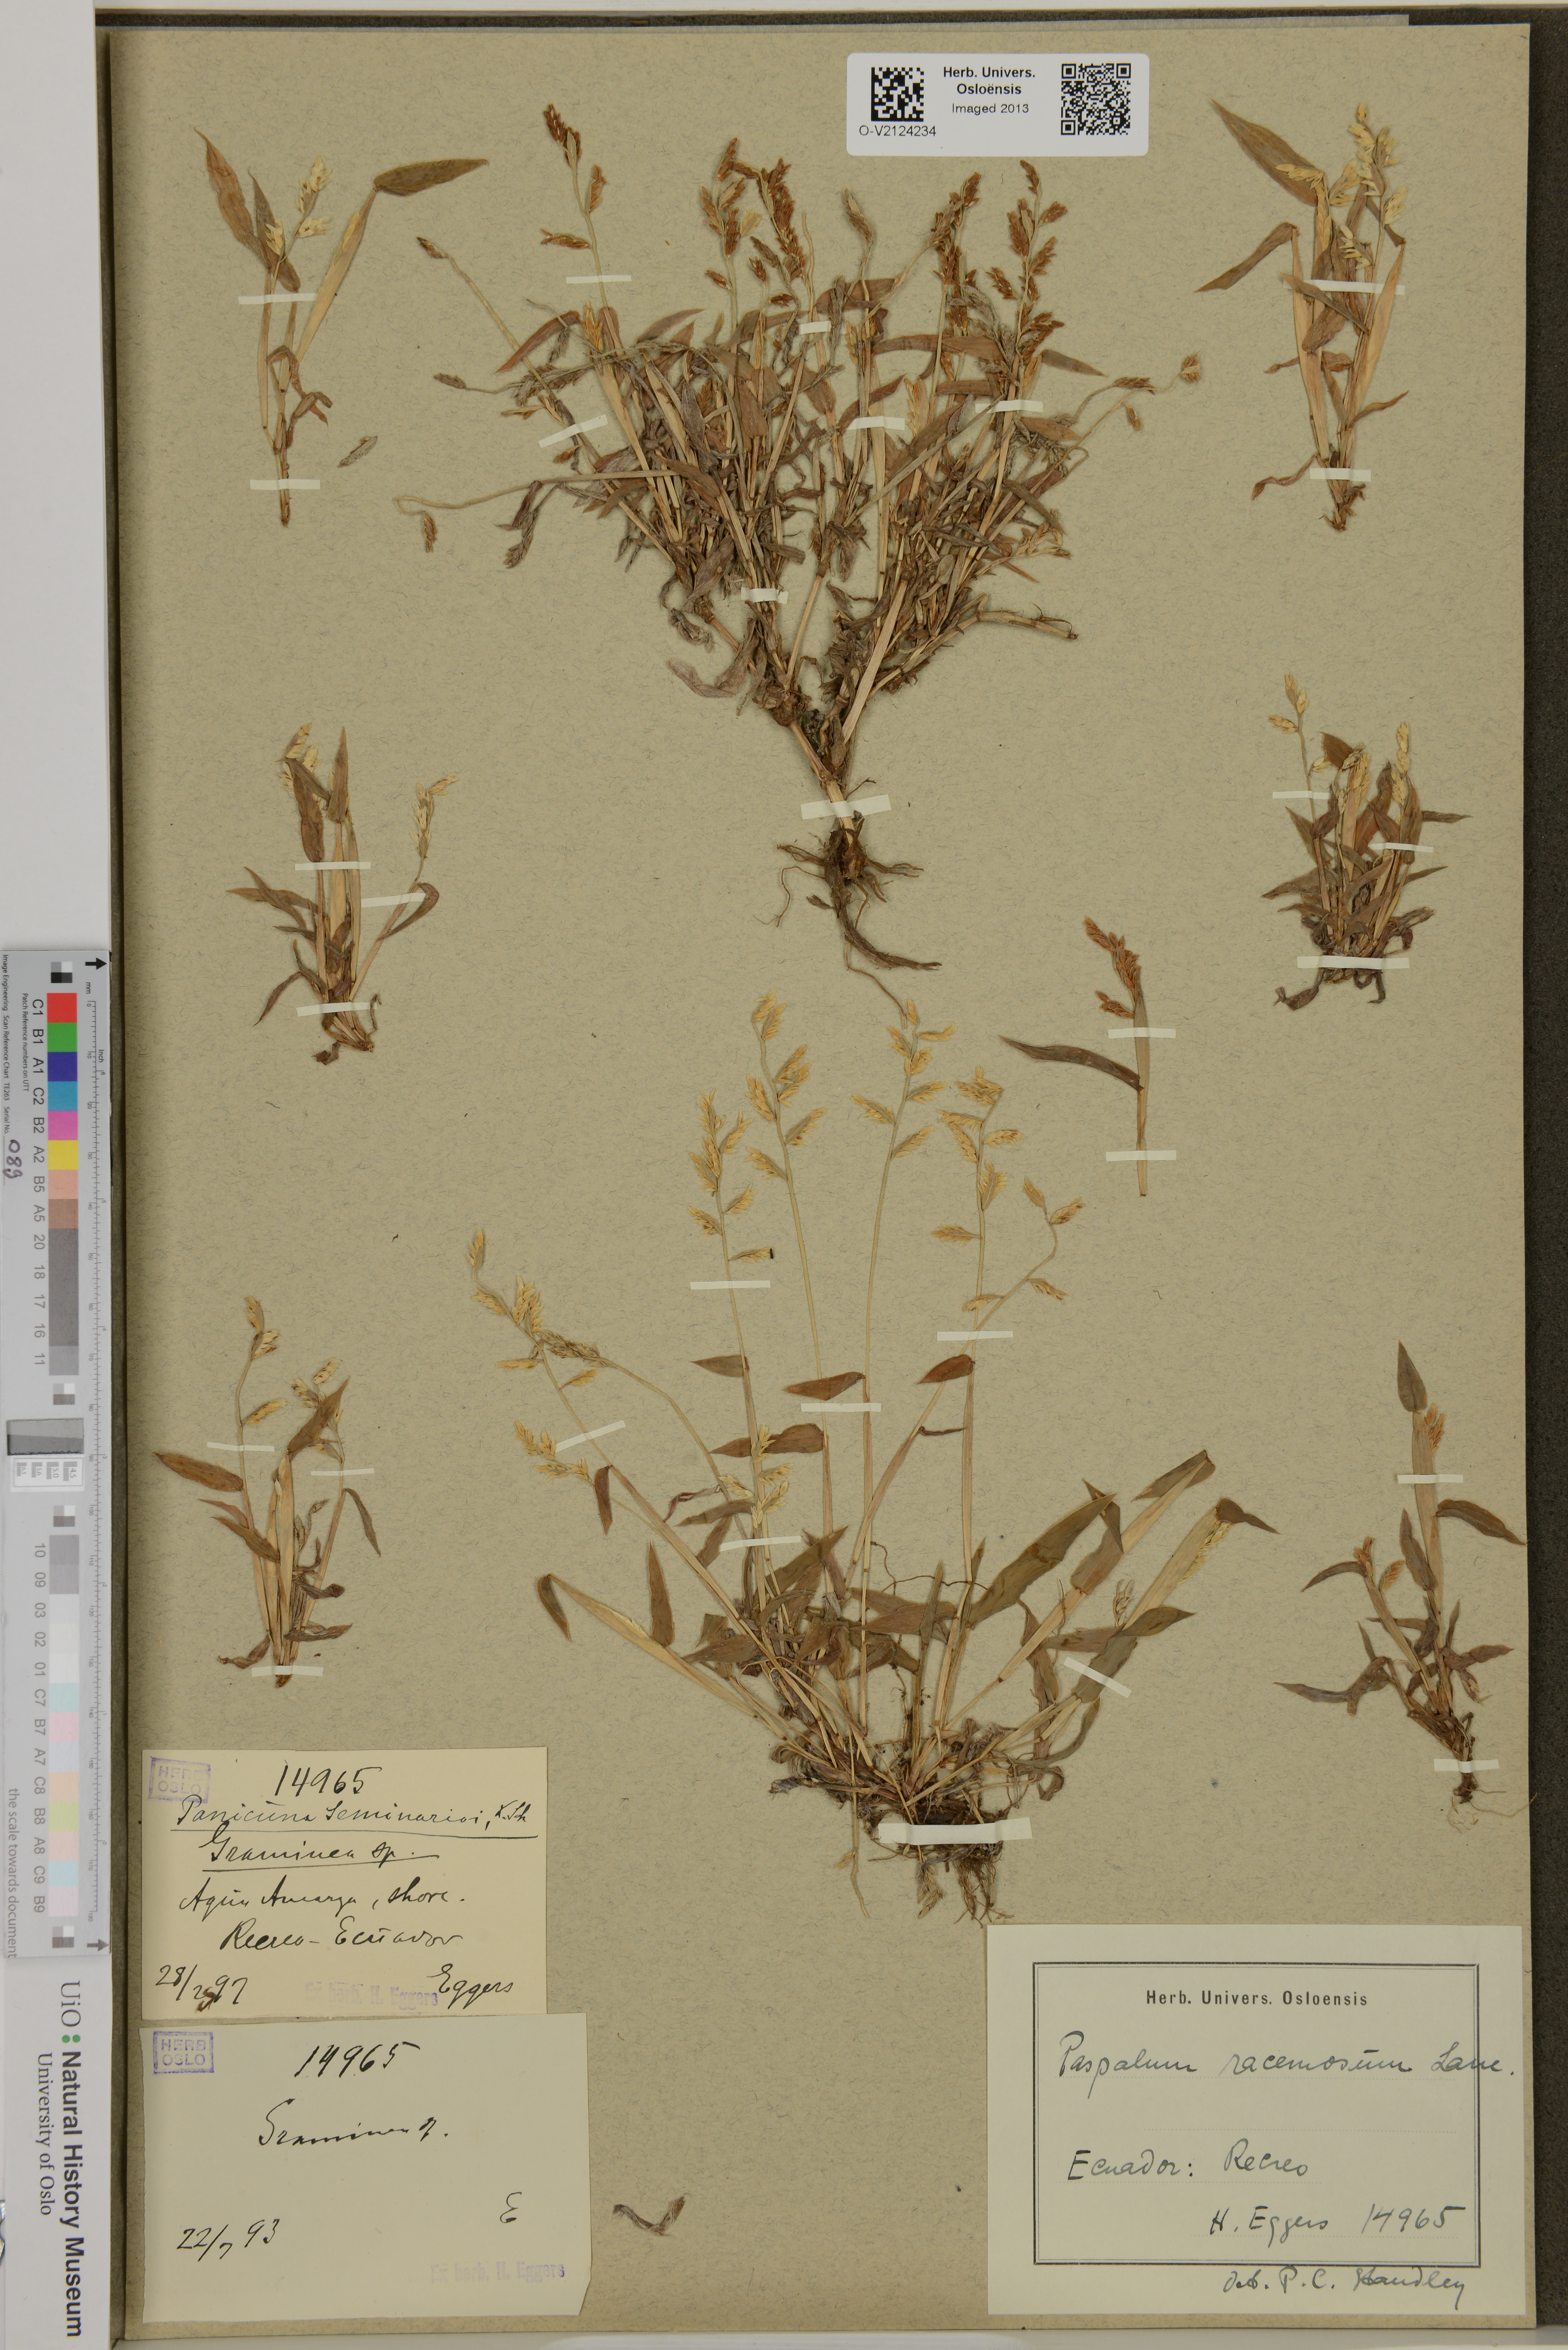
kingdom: Plantae
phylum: Tracheophyta
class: Liliopsida
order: Poales
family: Poaceae
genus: Paspalum
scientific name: Paspalum racemosum
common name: Peruvian paspalum
